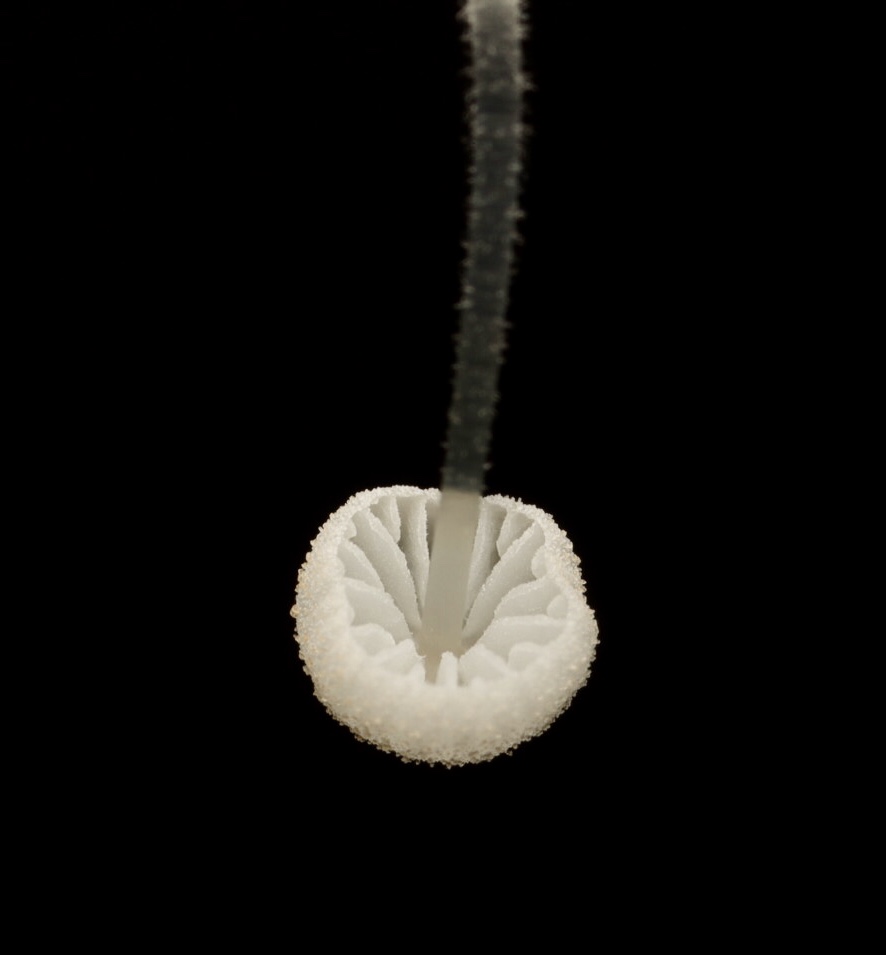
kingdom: Fungi
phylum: Basidiomycota
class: Agaricomycetes
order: Agaricales
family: Mycenaceae
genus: Mycena
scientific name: Mycena tenerrima
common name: pudret huesvamp
